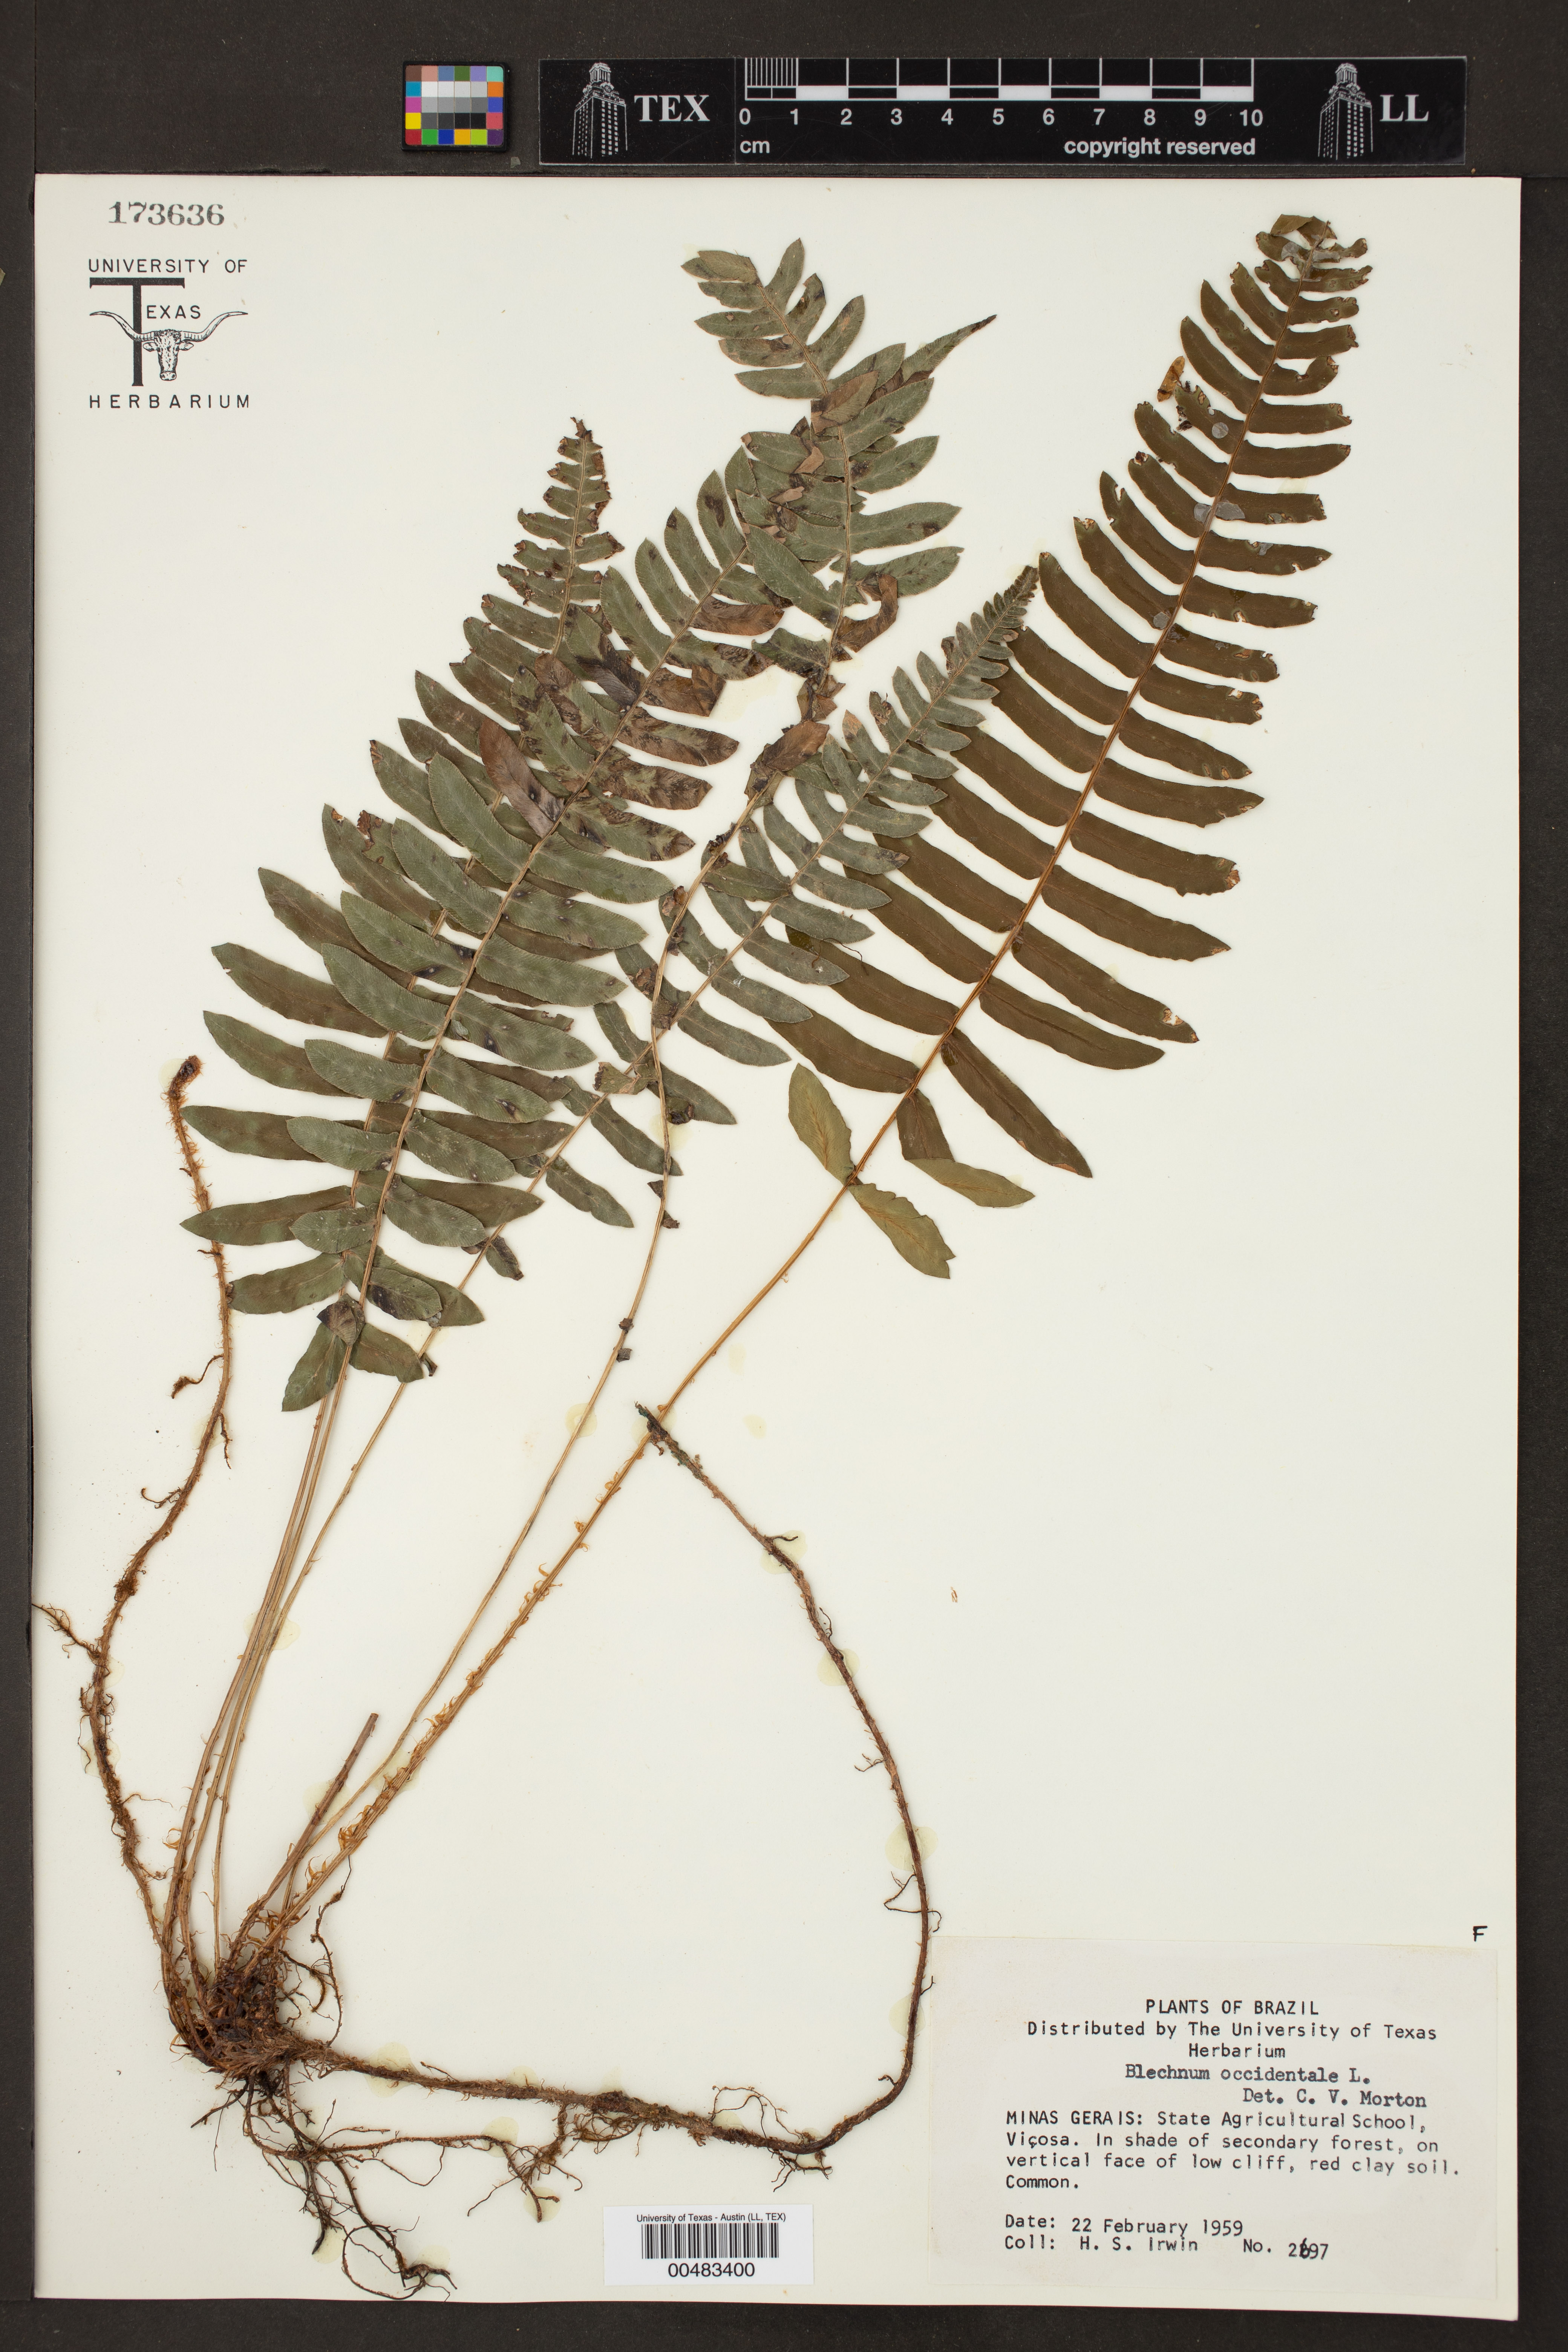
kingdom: Plantae
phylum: Tracheophyta
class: Polypodiopsida
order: Polypodiales
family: Blechnaceae
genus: Blechnum
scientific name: Blechnum occidentale
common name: Hammock fern
